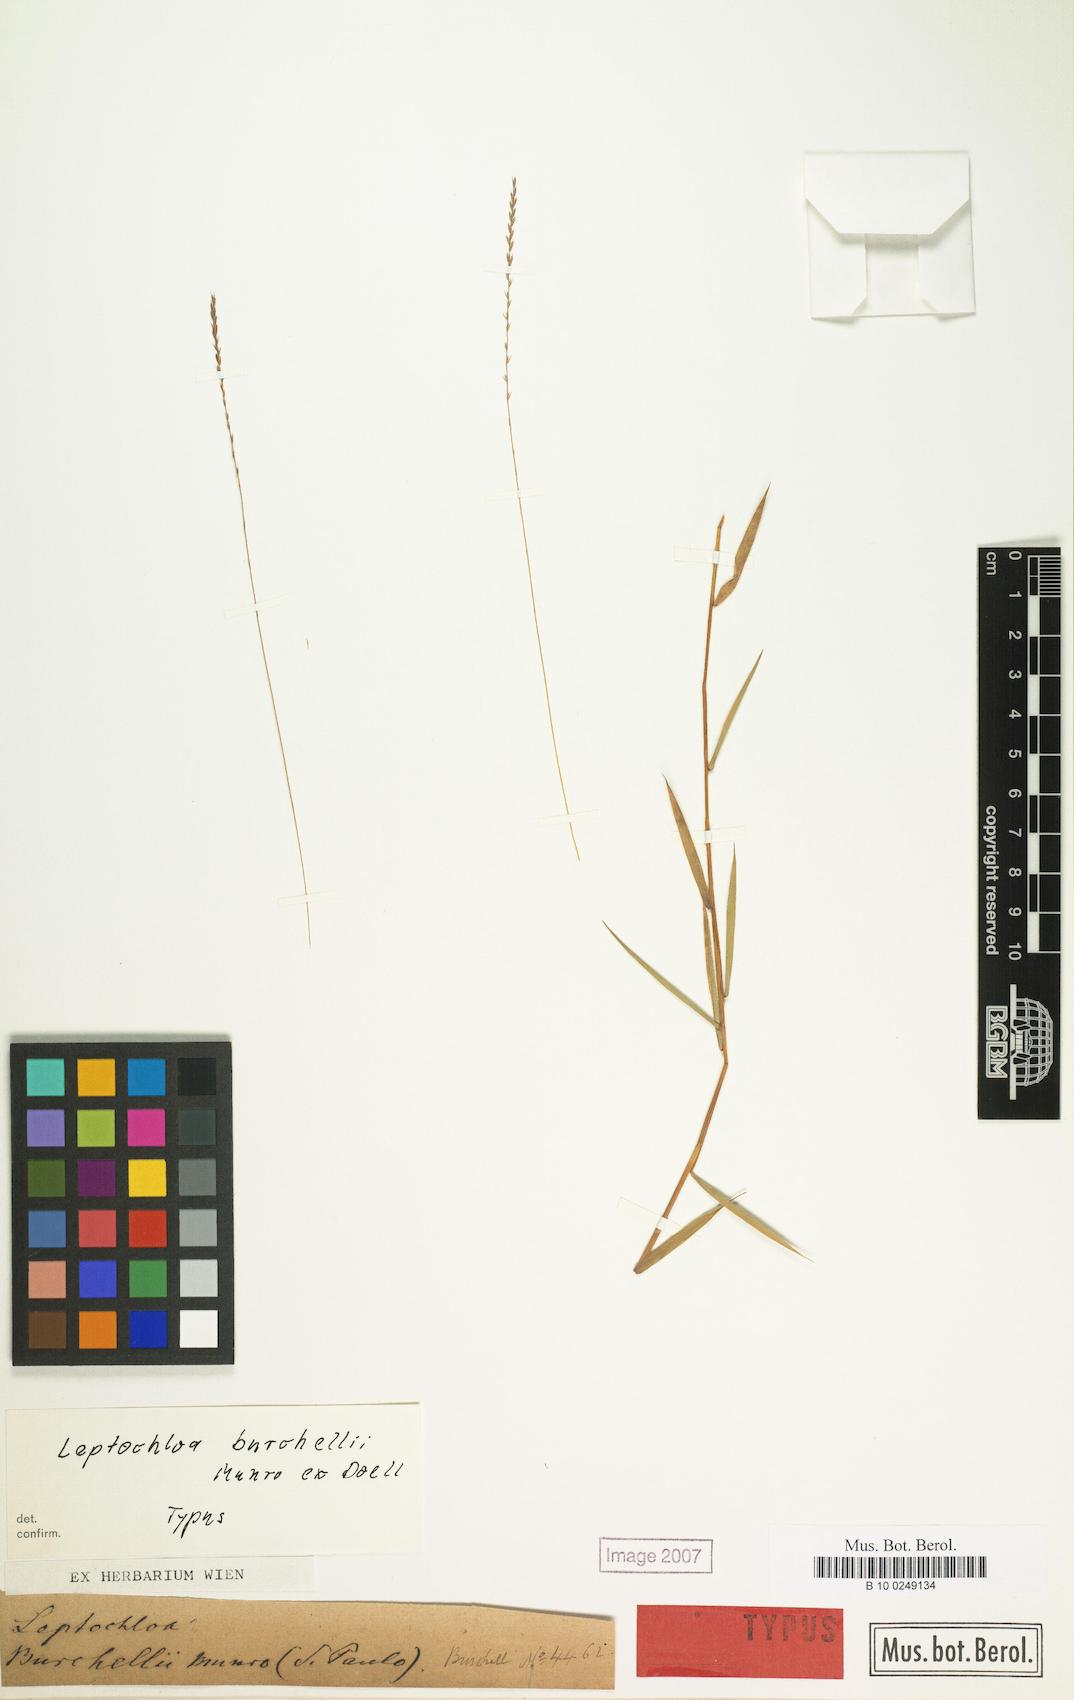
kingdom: Plantae
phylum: Tracheophyta
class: Liliopsida
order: Poales
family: Poaceae
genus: Gymnopogon
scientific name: Gymnopogon burchellii
